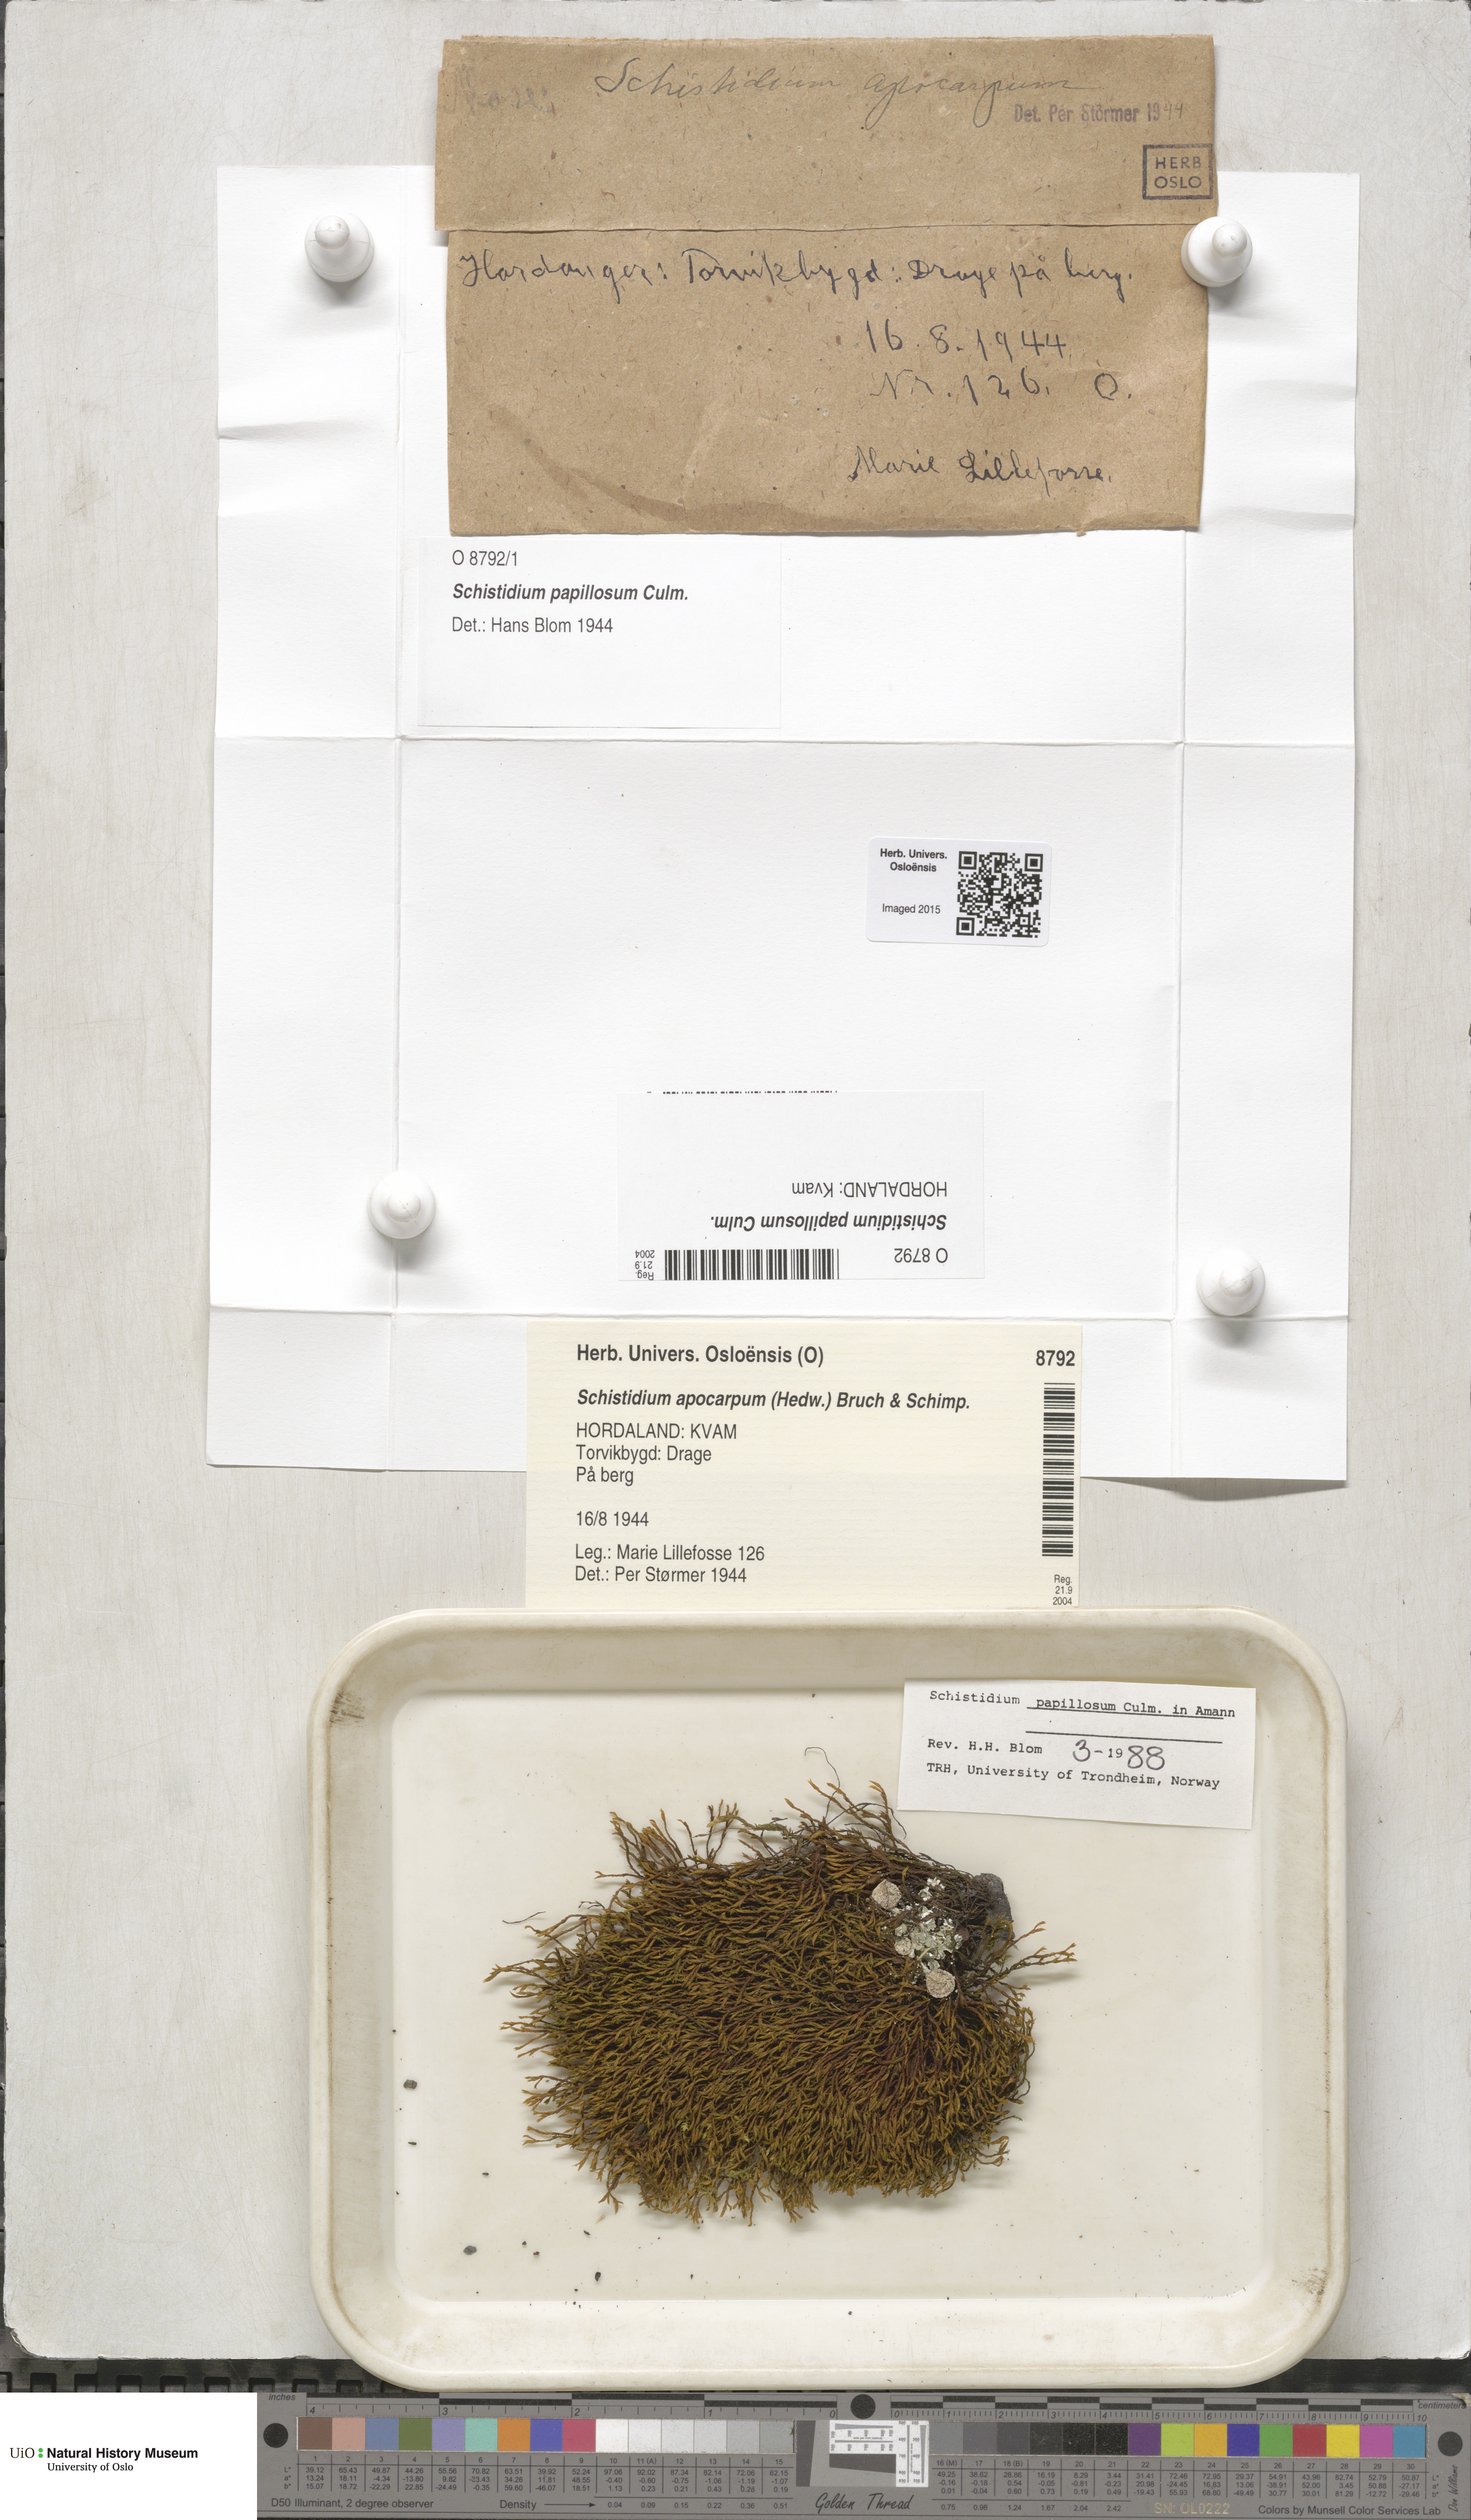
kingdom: Plantae
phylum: Bryophyta
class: Bryopsida
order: Grimmiales
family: Grimmiaceae
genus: Schistidium
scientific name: Schistidium papillosum
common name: Papillose bloom moss
